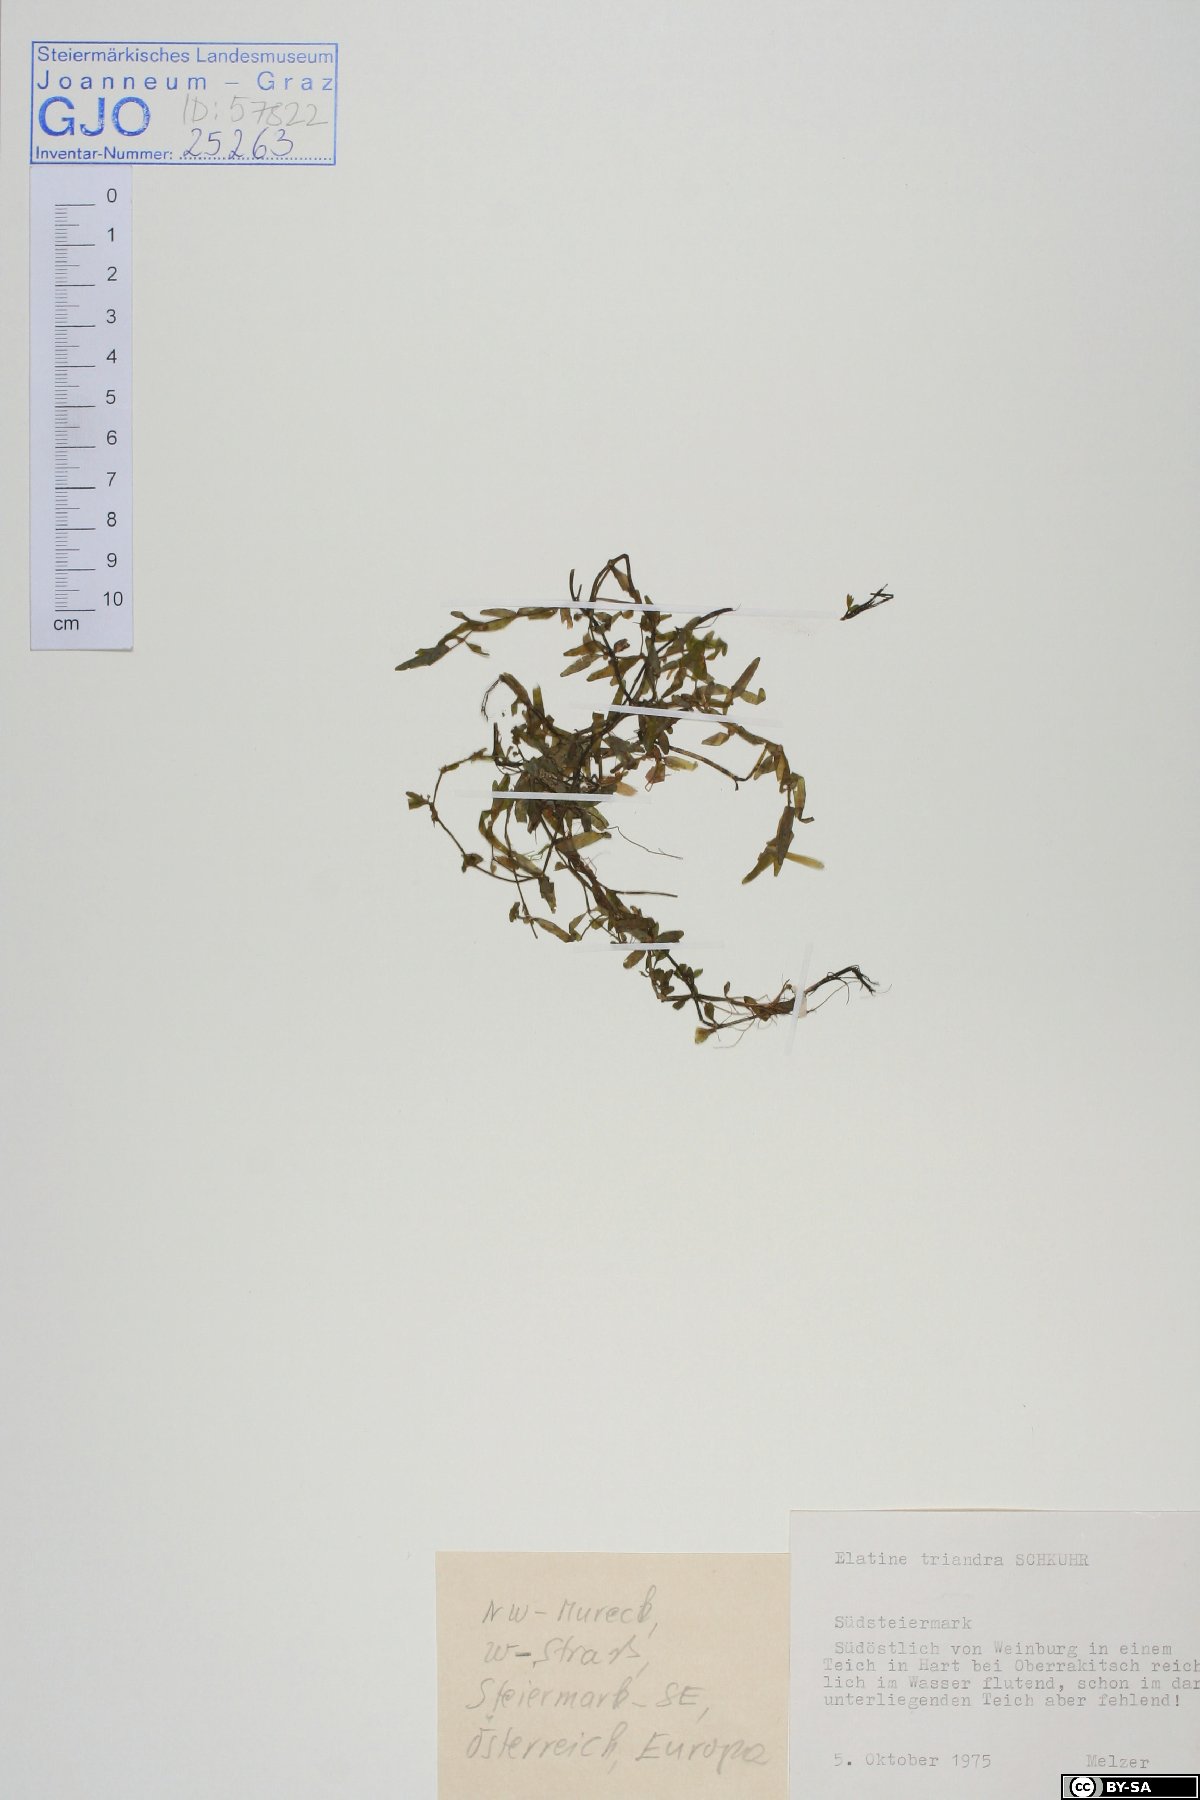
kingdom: Plantae
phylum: Tracheophyta
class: Magnoliopsida
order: Malpighiales
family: Elatinaceae
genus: Elatine
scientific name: Elatine triandra
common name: Three-stamened waterwort
